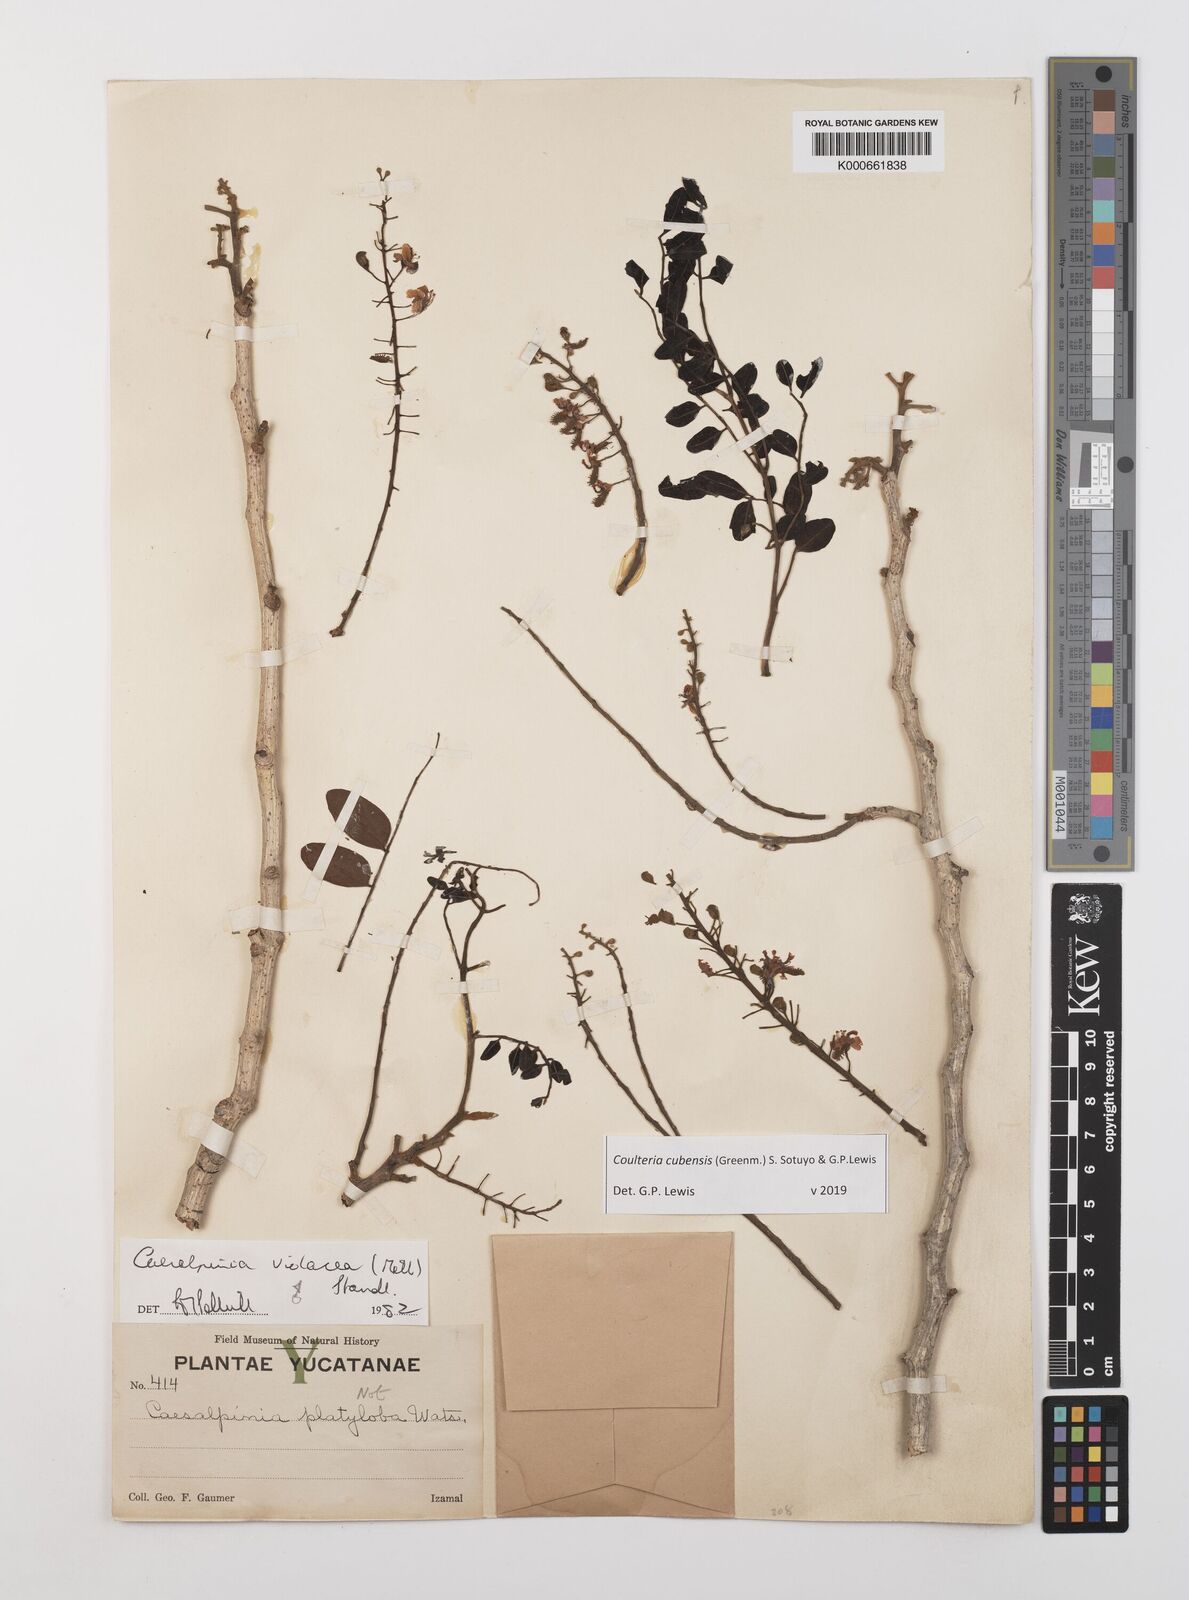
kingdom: Plantae
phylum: Tracheophyta
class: Magnoliopsida
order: Fabales
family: Fabaceae
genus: Coulteria
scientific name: Coulteria cubensis
